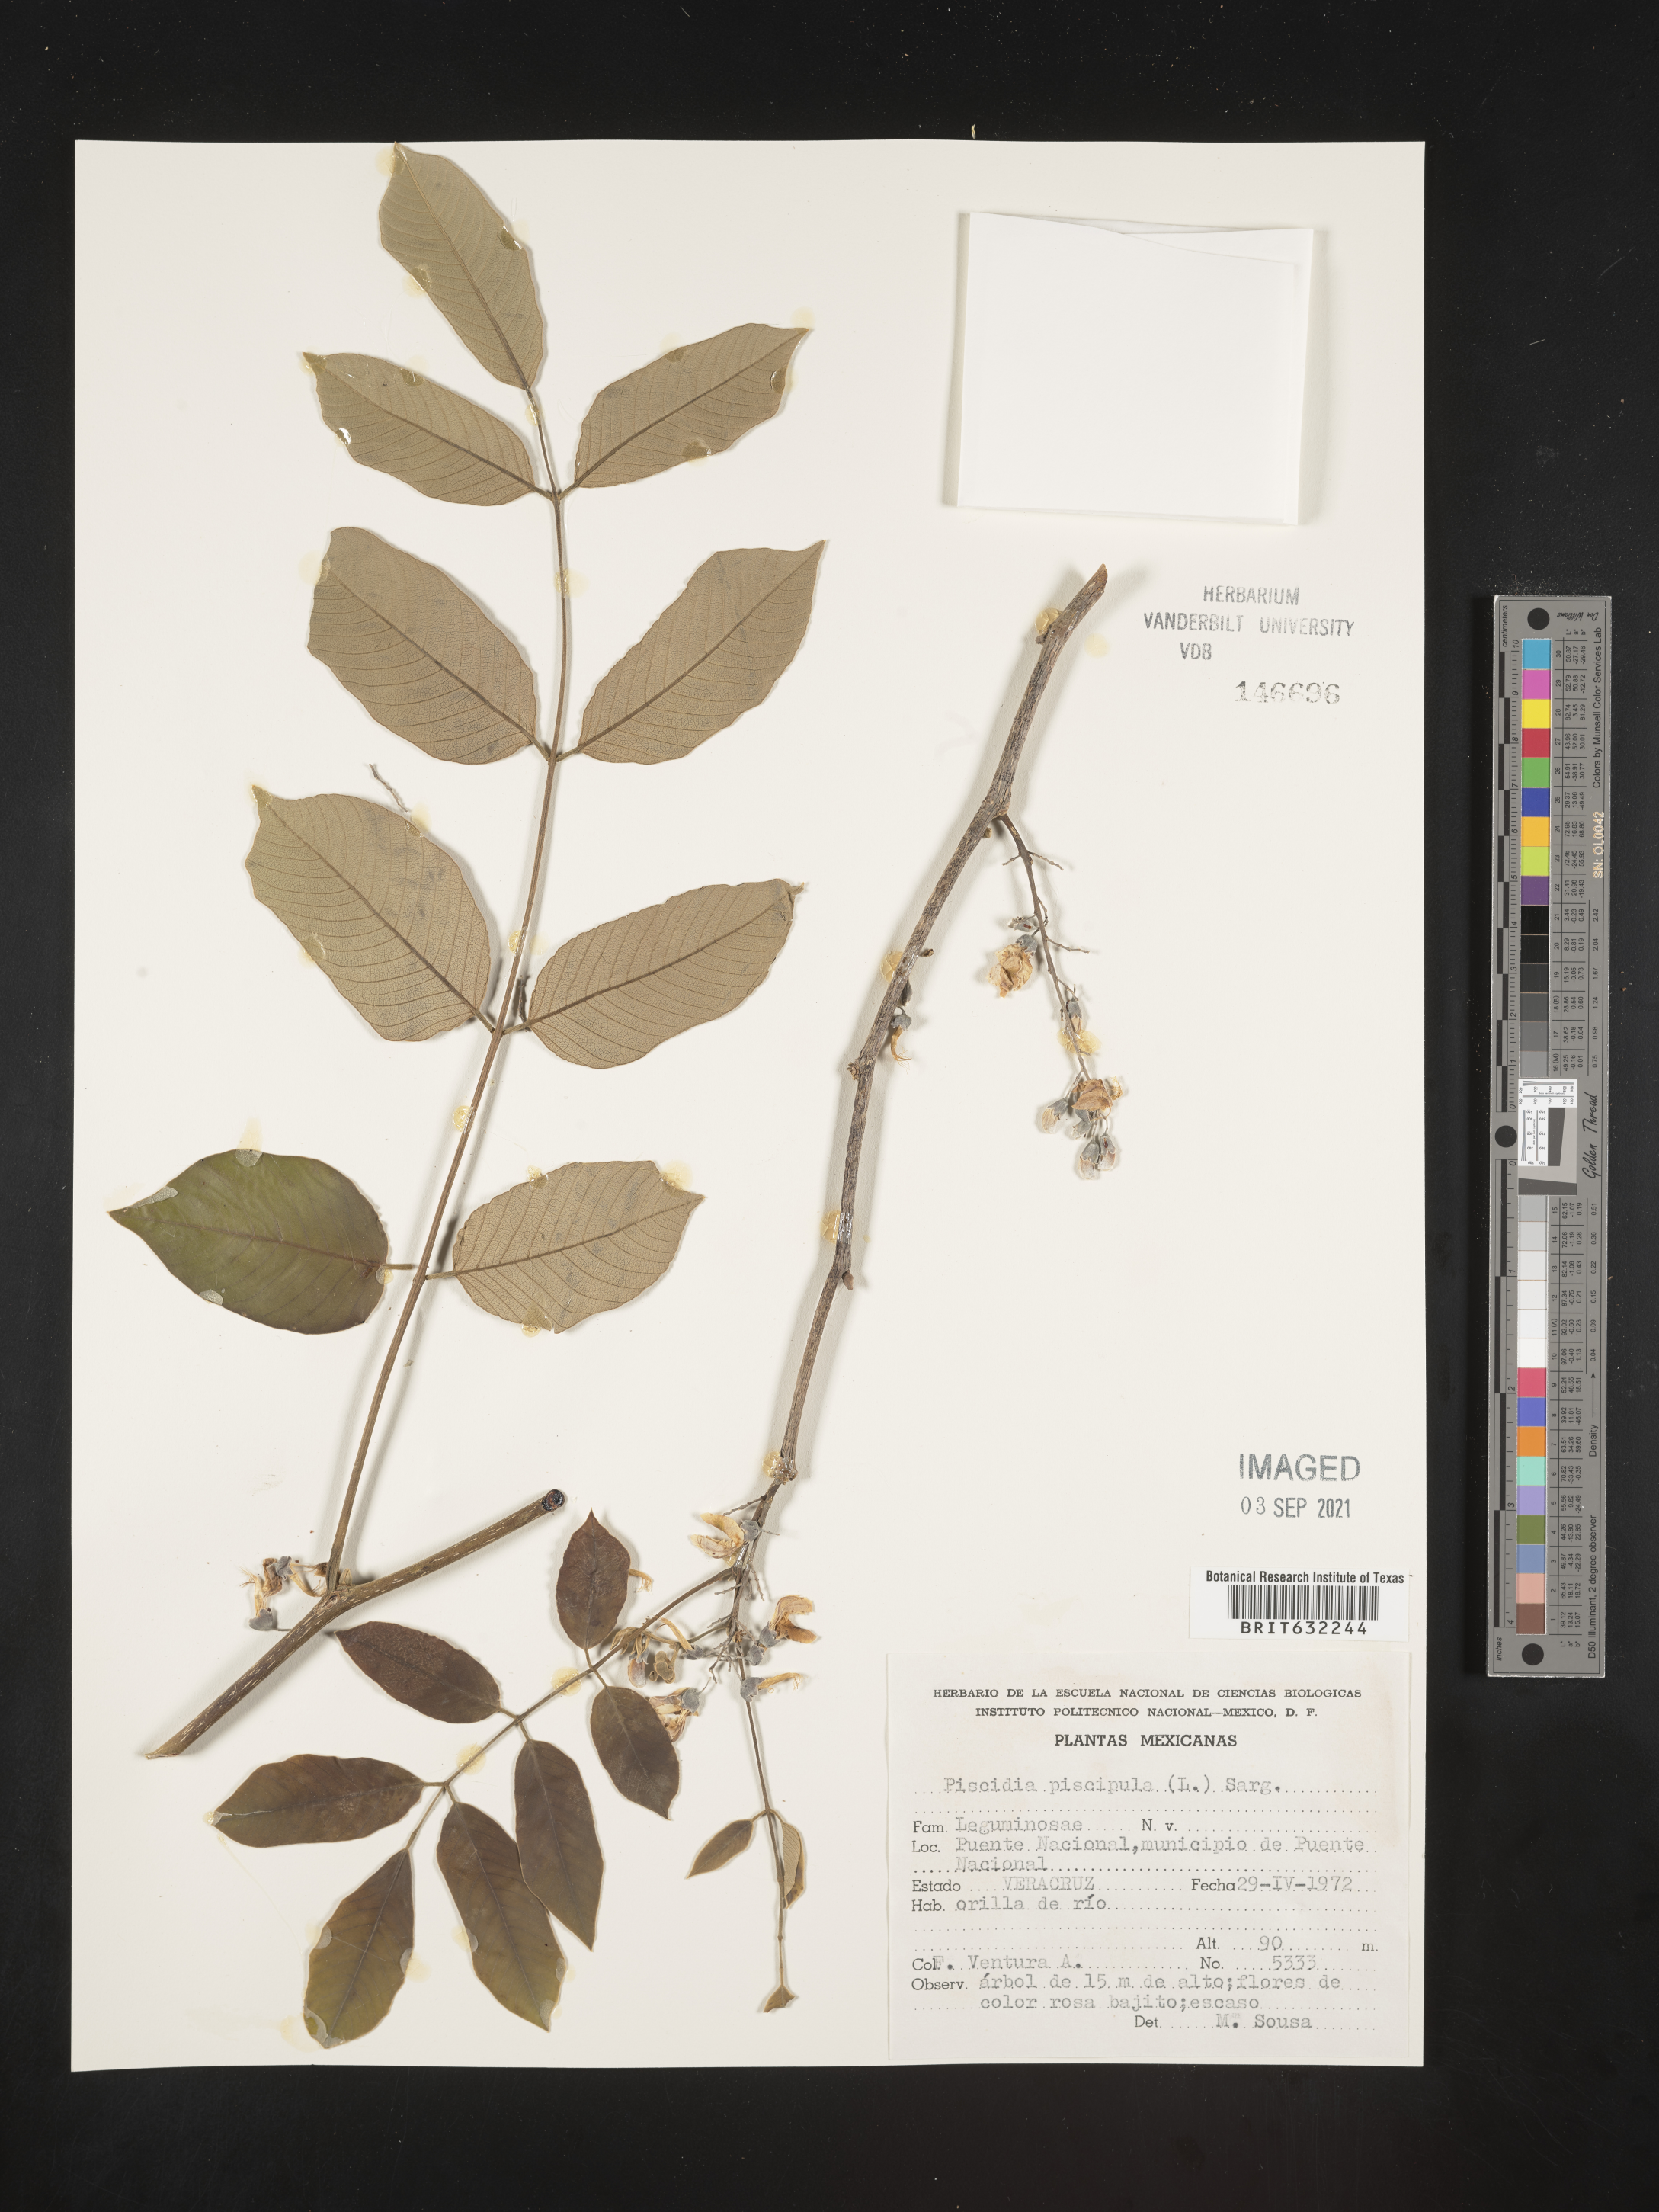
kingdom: Plantae
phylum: Tracheophyta
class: Magnoliopsida
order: Fabales
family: Fabaceae
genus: Piscidia
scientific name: Piscidia
